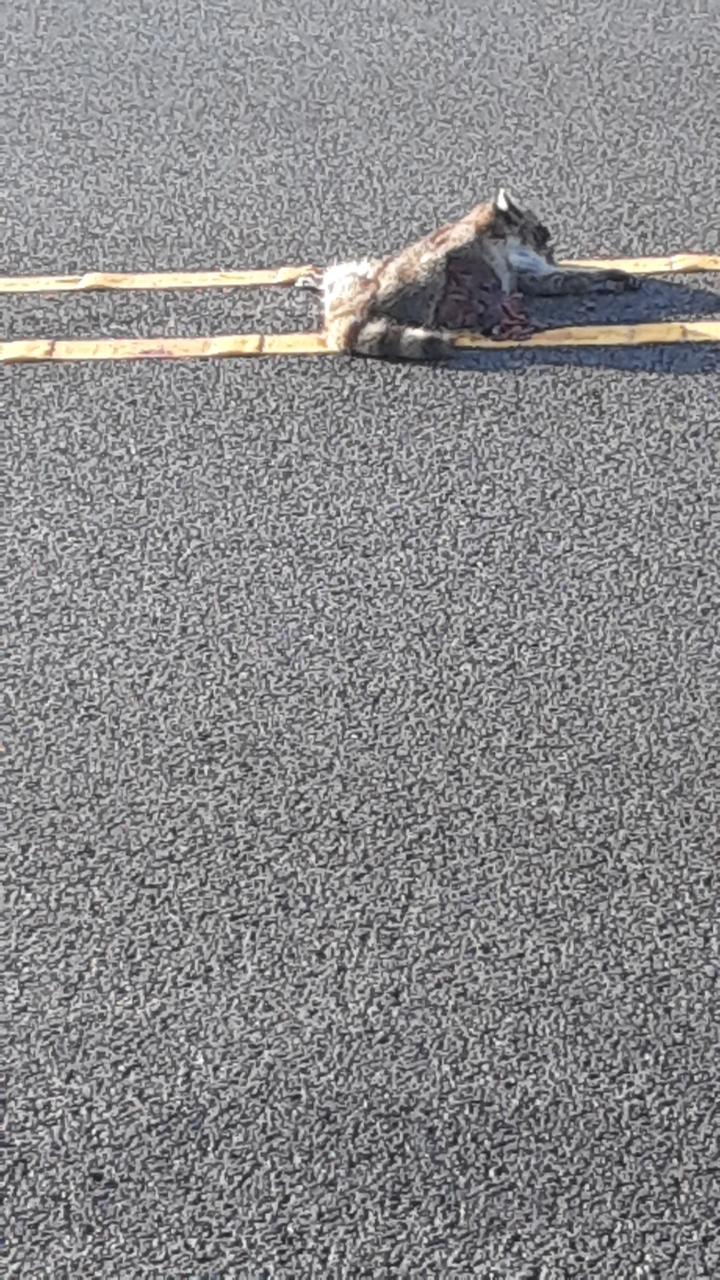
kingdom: Animalia
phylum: Chordata
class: Mammalia
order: Carnivora
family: Procyonidae
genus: Procyon
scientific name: Procyon lotor
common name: Raccoon
